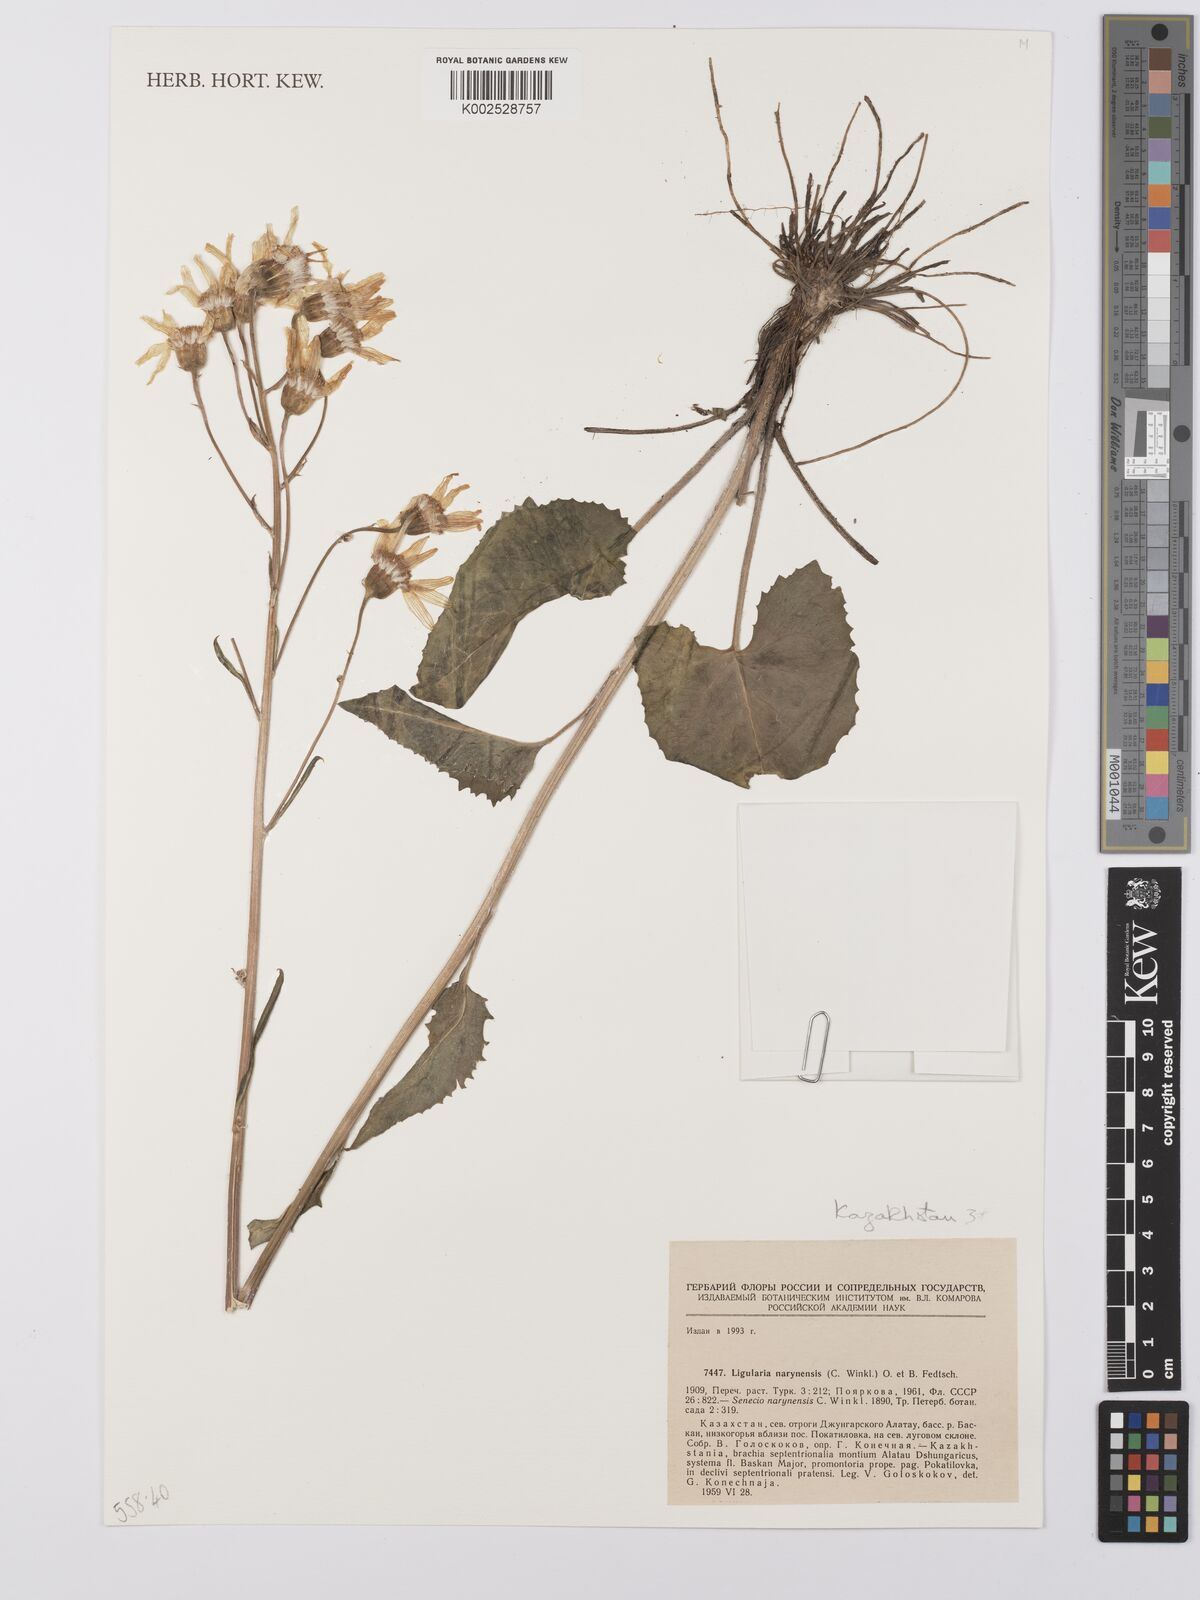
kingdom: Plantae
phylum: Tracheophyta
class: Magnoliopsida
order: Asterales
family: Asteraceae
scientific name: Asteraceae
